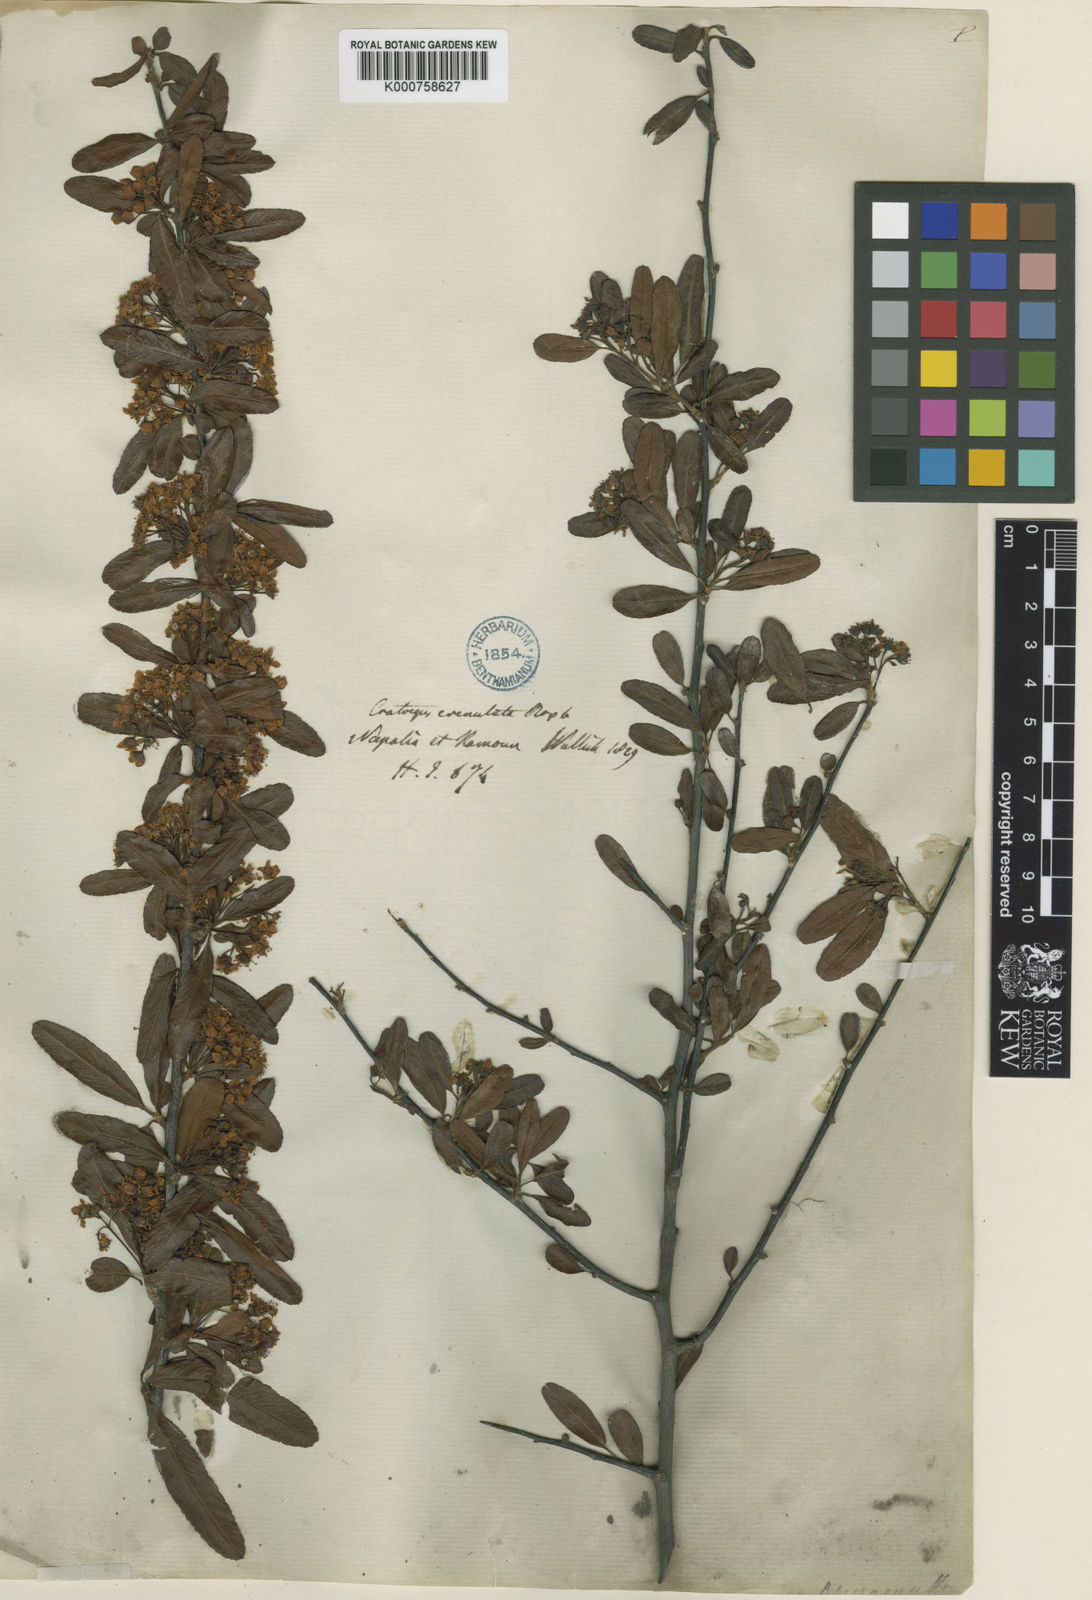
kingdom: Plantae
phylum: Tracheophyta
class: Magnoliopsida
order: Rosales
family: Rosaceae
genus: Pyracantha
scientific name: Pyracantha crenulata
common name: Nepalese firethorn
